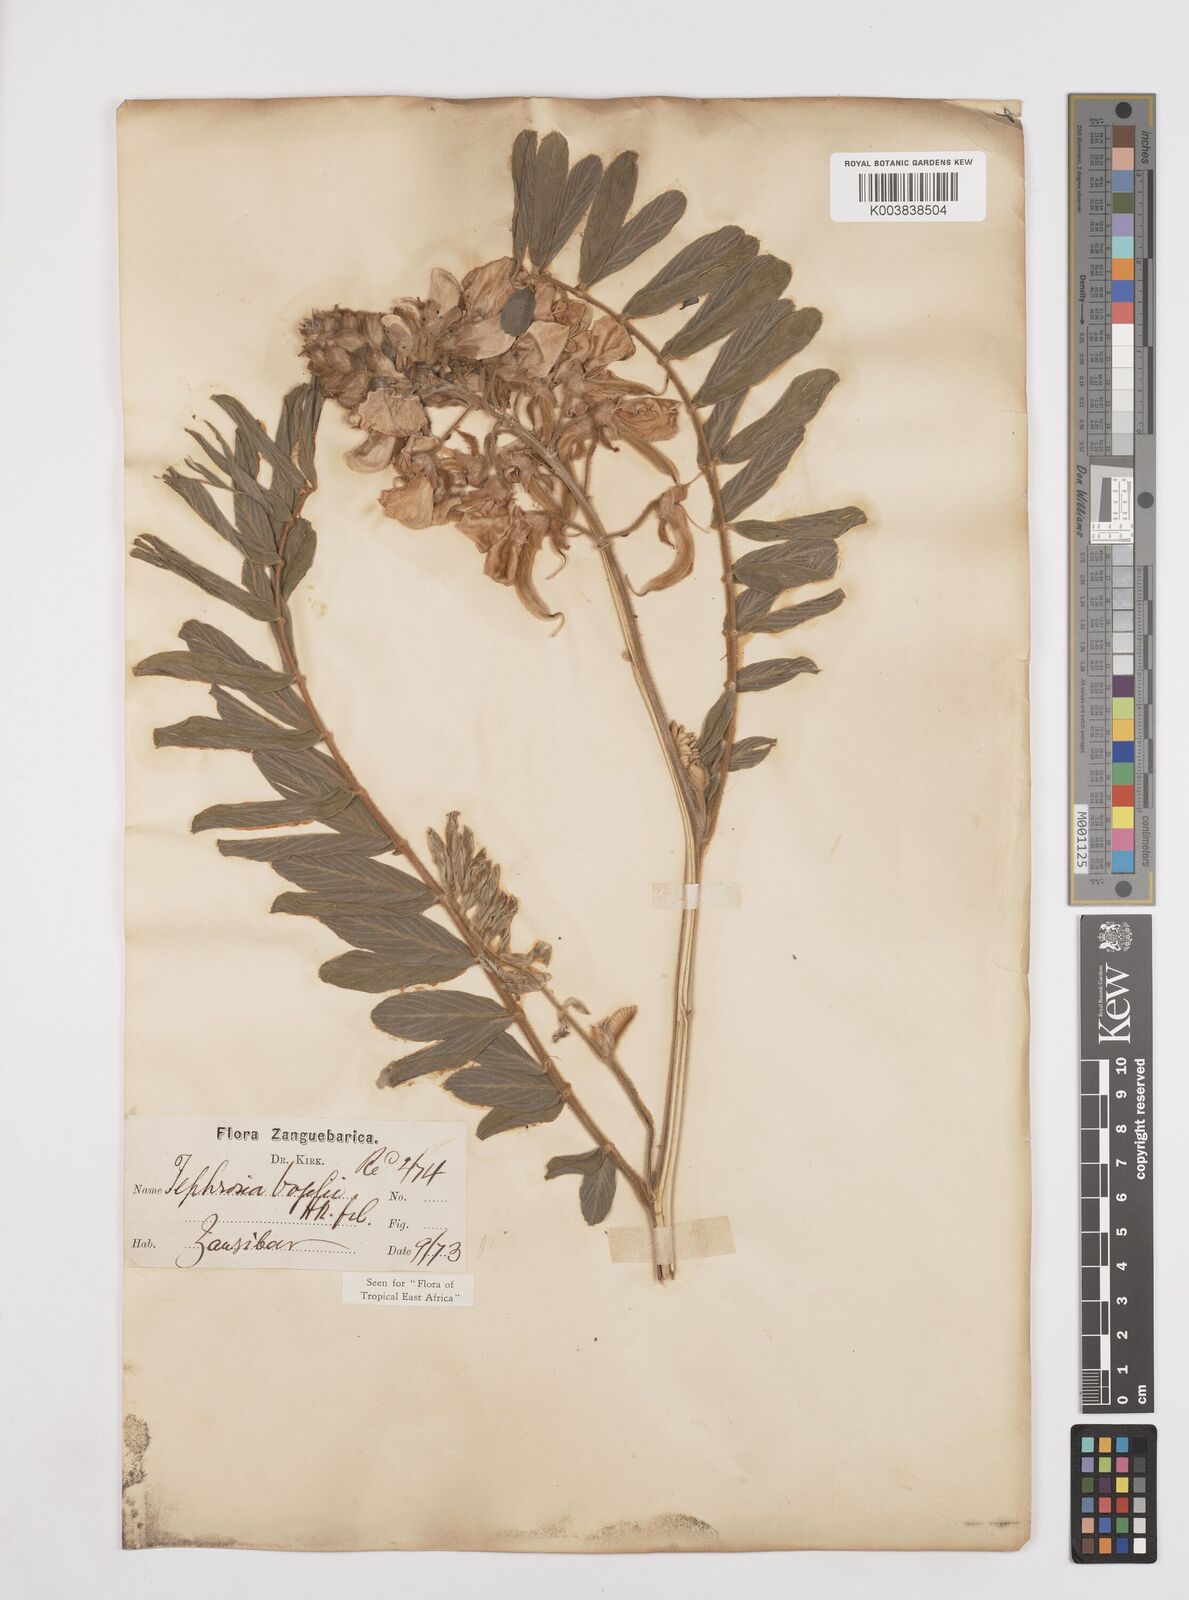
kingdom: Plantae
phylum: Tracheophyta
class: Magnoliopsida
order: Fabales
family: Fabaceae
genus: Tephrosia
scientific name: Tephrosia vogelii
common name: Vogel tephrosia
